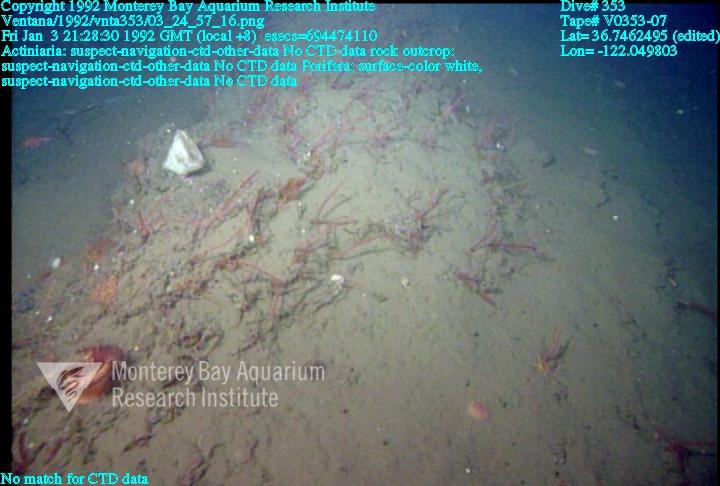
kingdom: Animalia
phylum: Porifera
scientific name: Porifera
